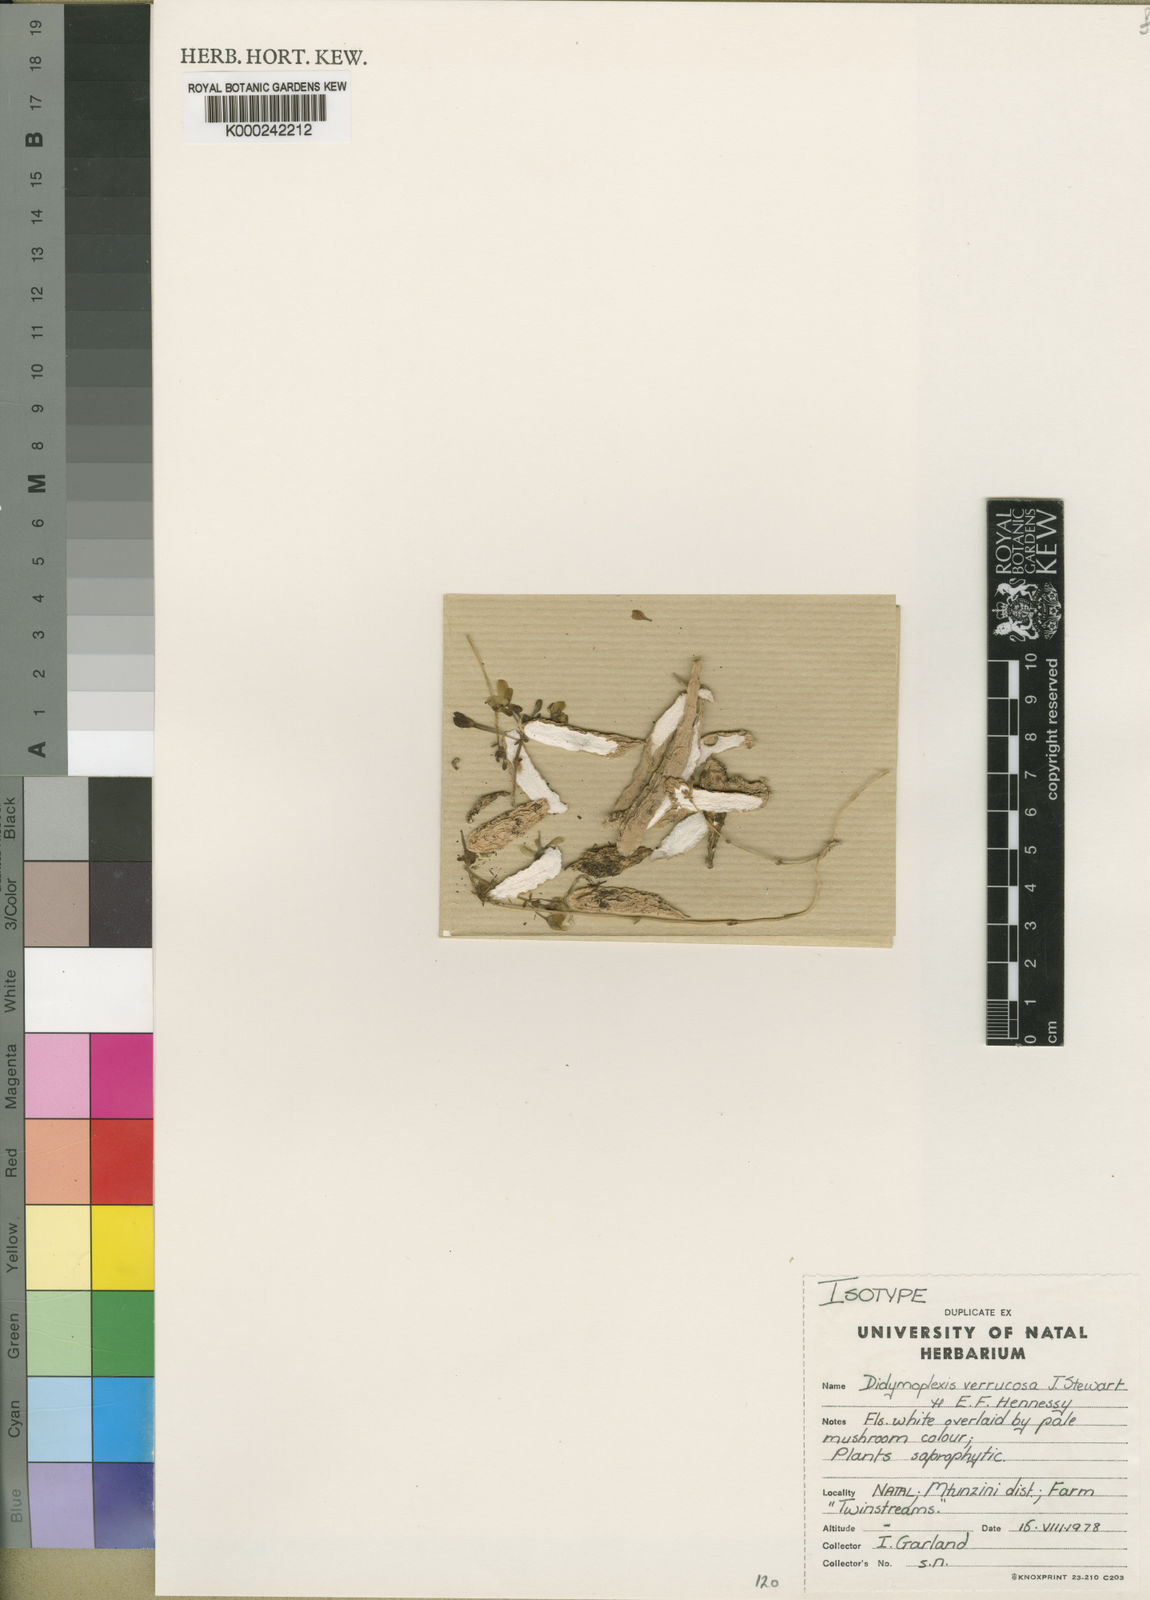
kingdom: Plantae
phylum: Tracheophyta
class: Liliopsida
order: Asparagales
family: Orchidaceae
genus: Didymoplexis
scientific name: Didymoplexis verrucosa
